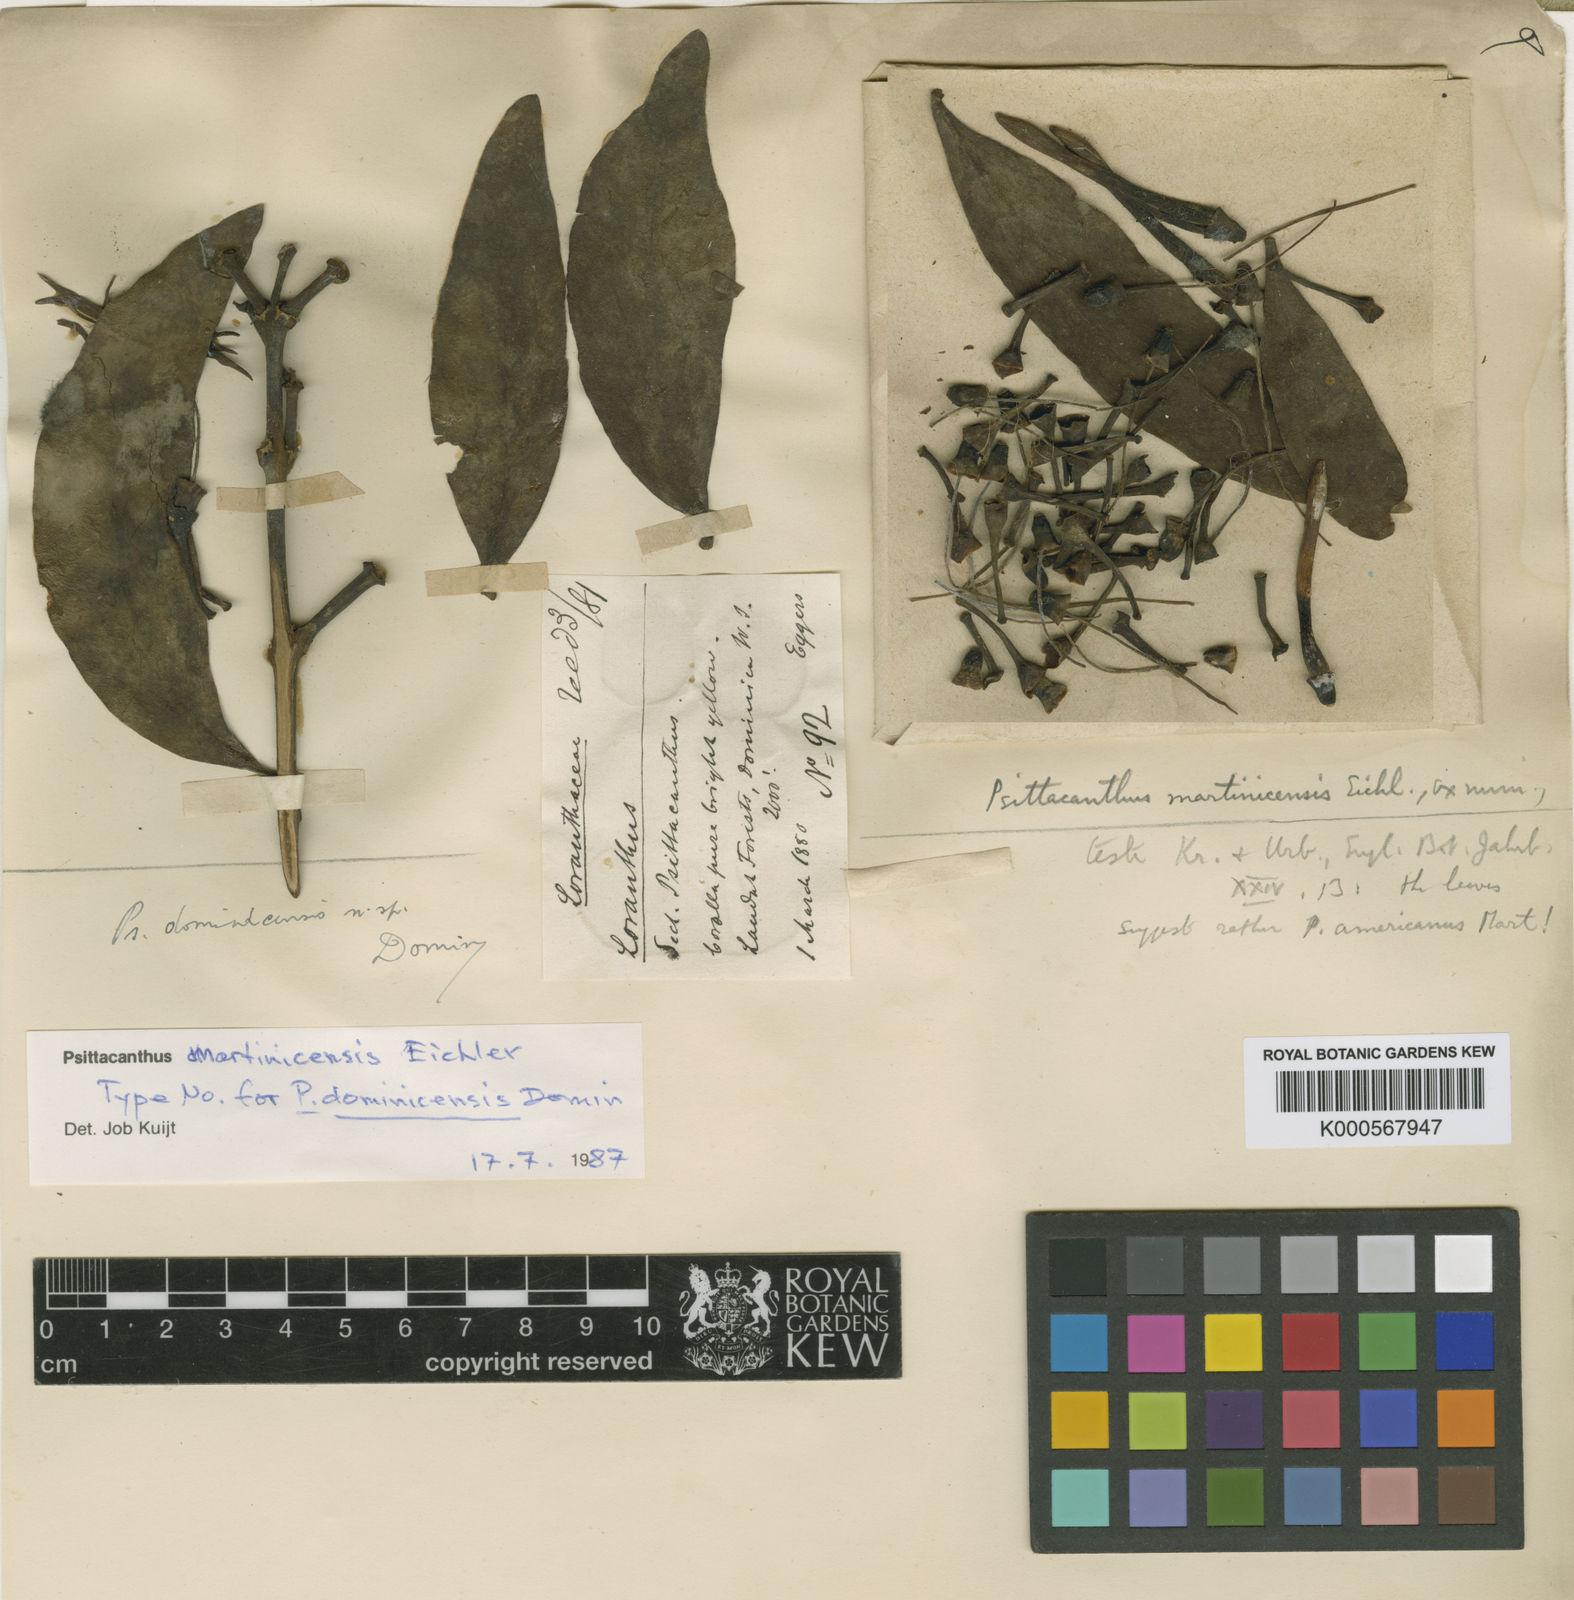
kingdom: Plantae
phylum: Tracheophyta
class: Magnoliopsida
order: Santalales
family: Loranthaceae
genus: Psittacanthus
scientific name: Psittacanthus martinicensis
